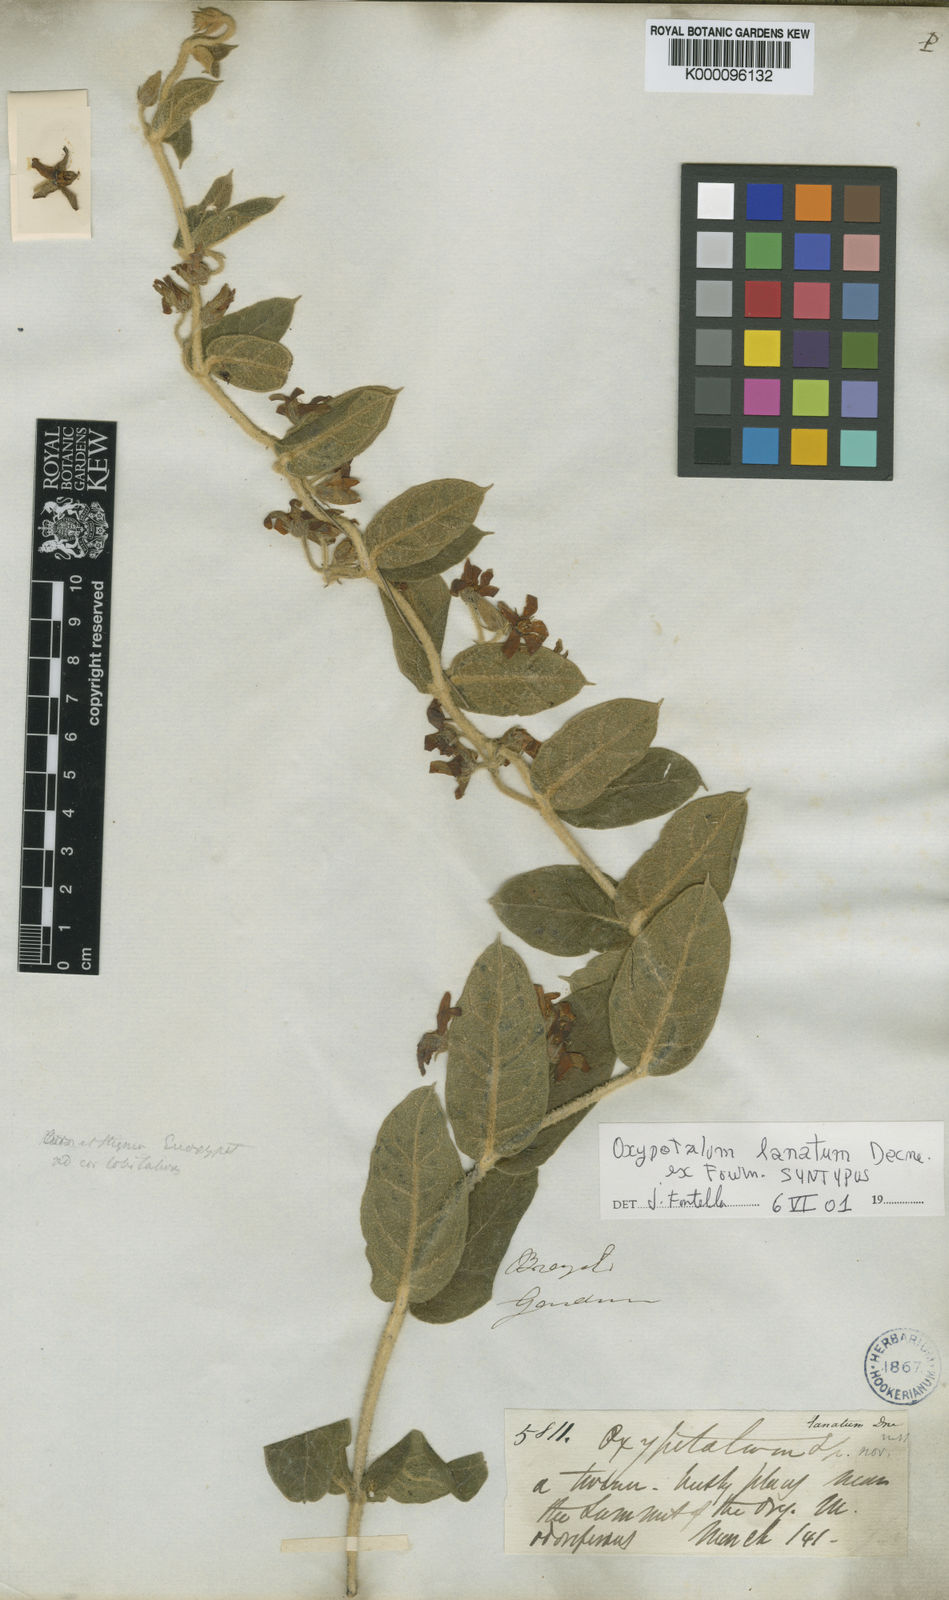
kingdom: Plantae
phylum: Tracheophyta
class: Magnoliopsida
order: Gentianales
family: Apocynaceae
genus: Oxypetalum
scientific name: Oxypetalum lanatum
